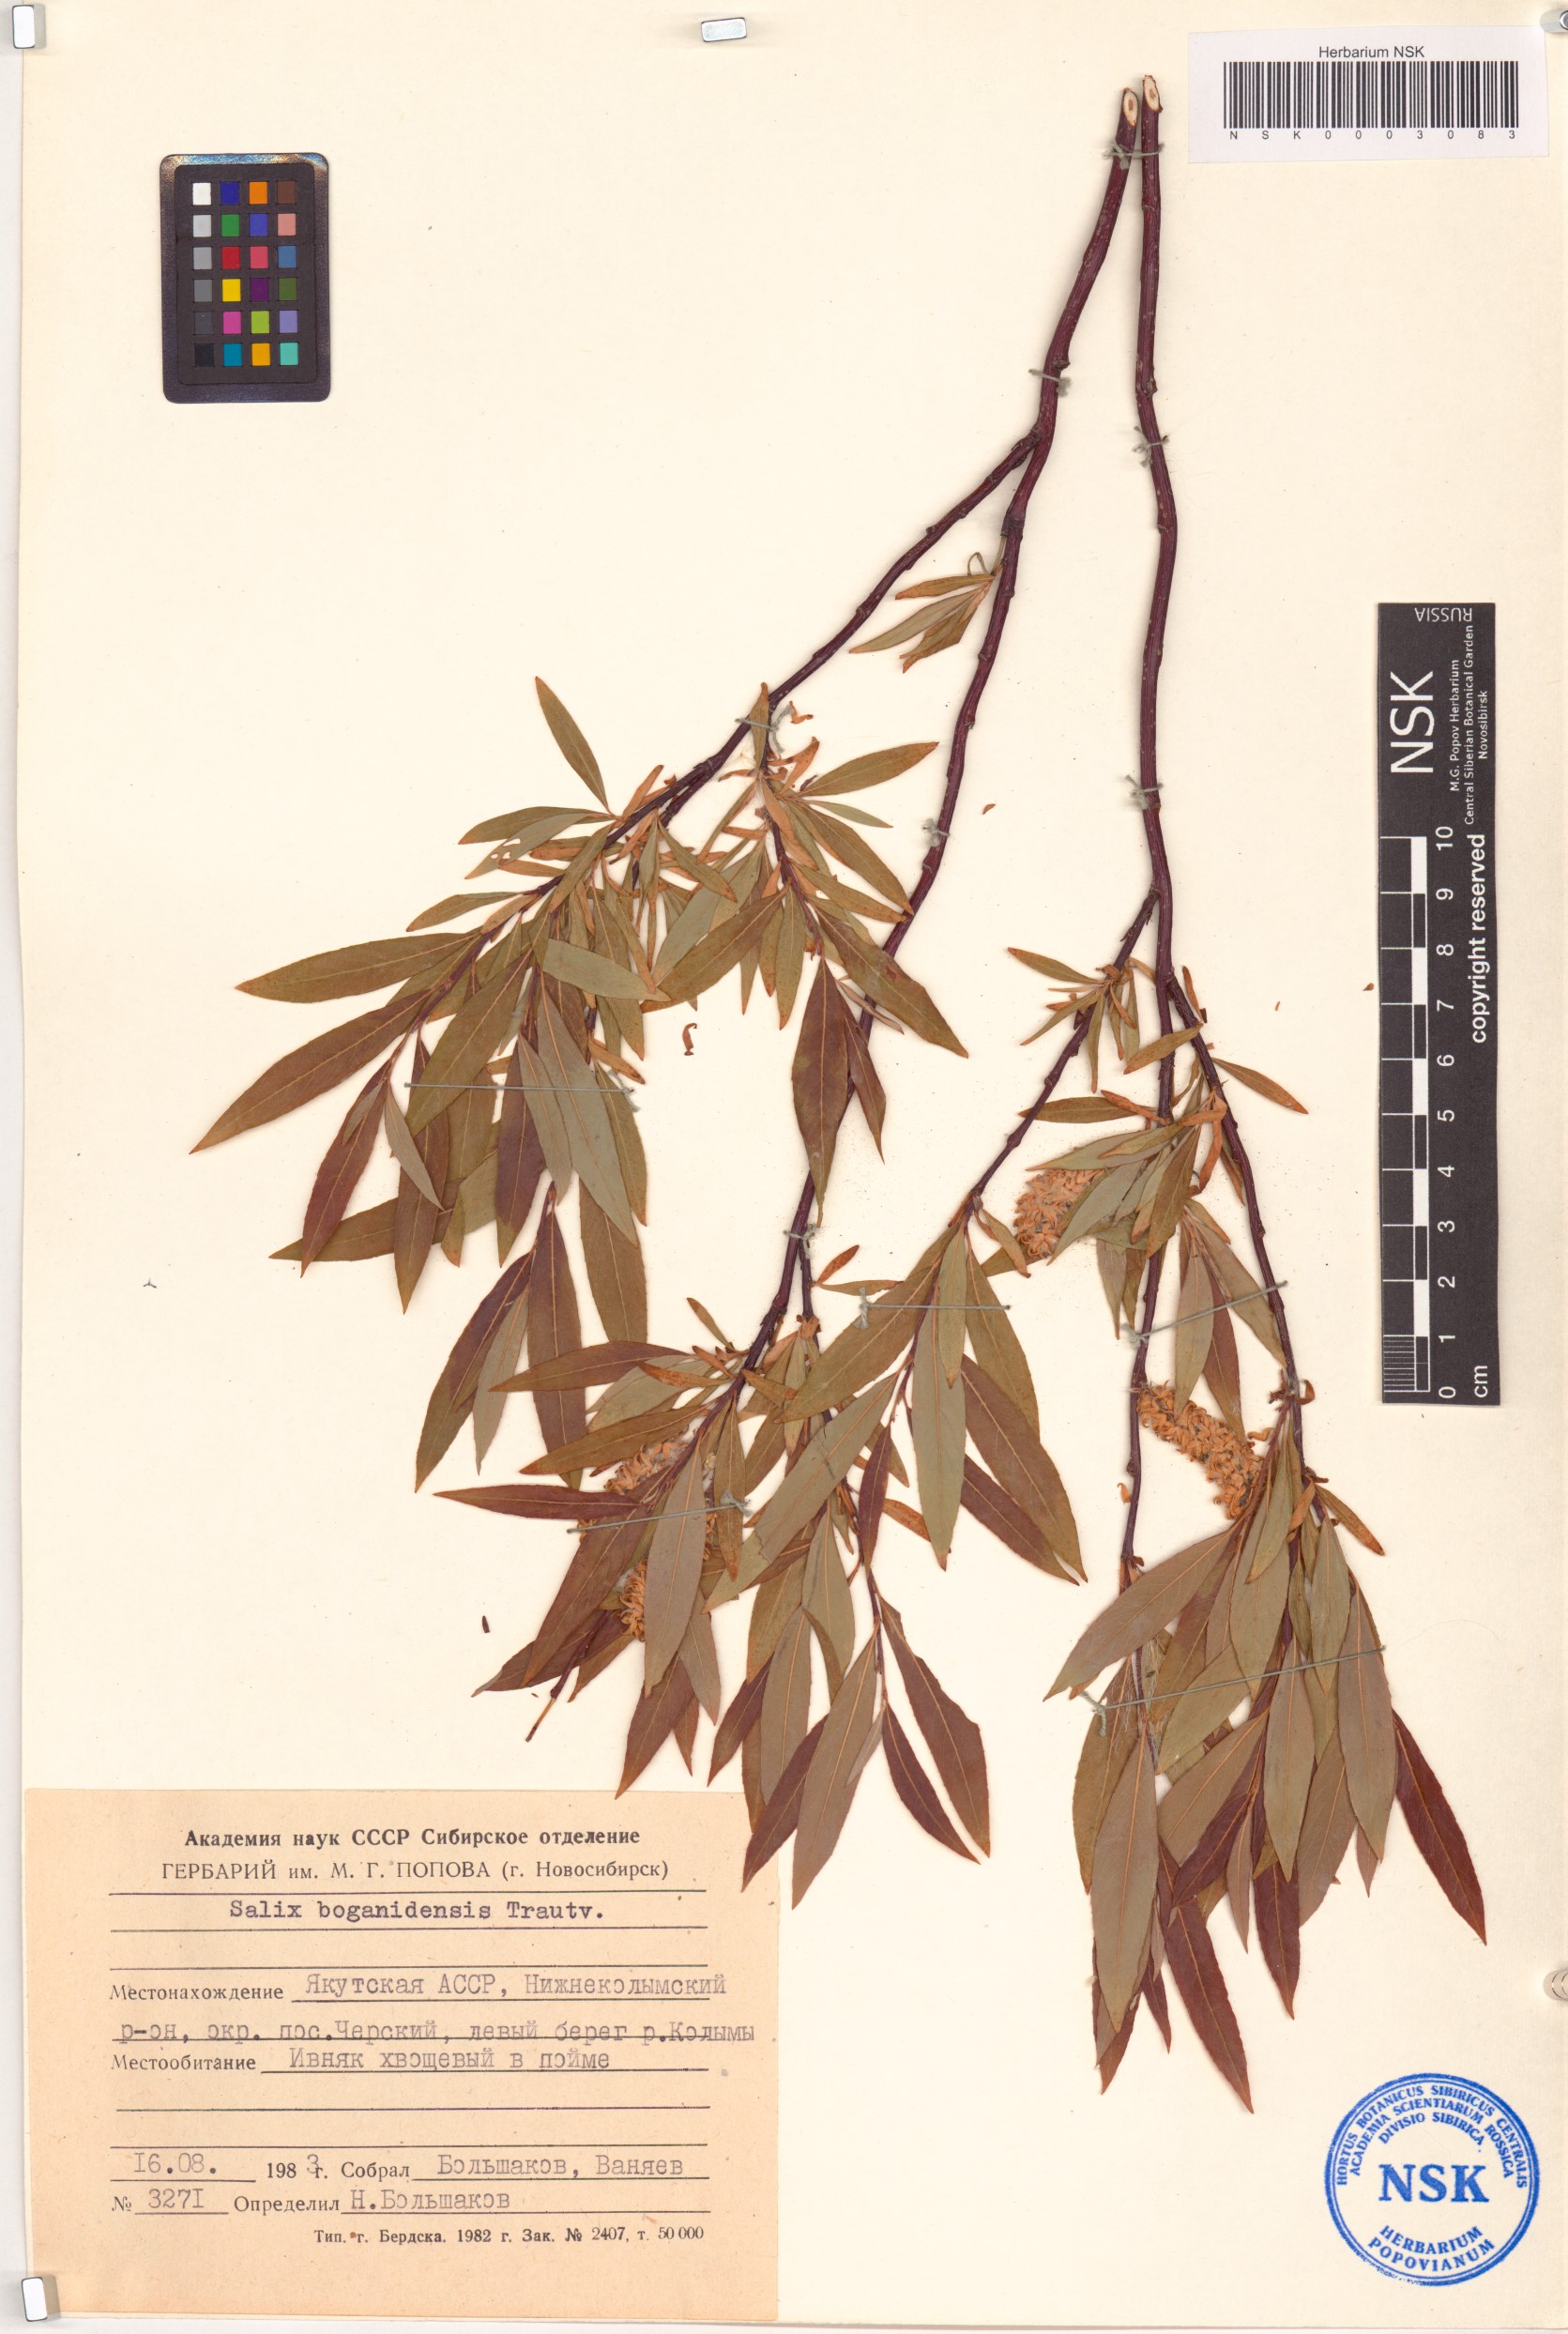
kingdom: Plantae
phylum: Tracheophyta
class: Magnoliopsida
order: Malpighiales
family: Salicaceae
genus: Salix
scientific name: Salix boganidensis
